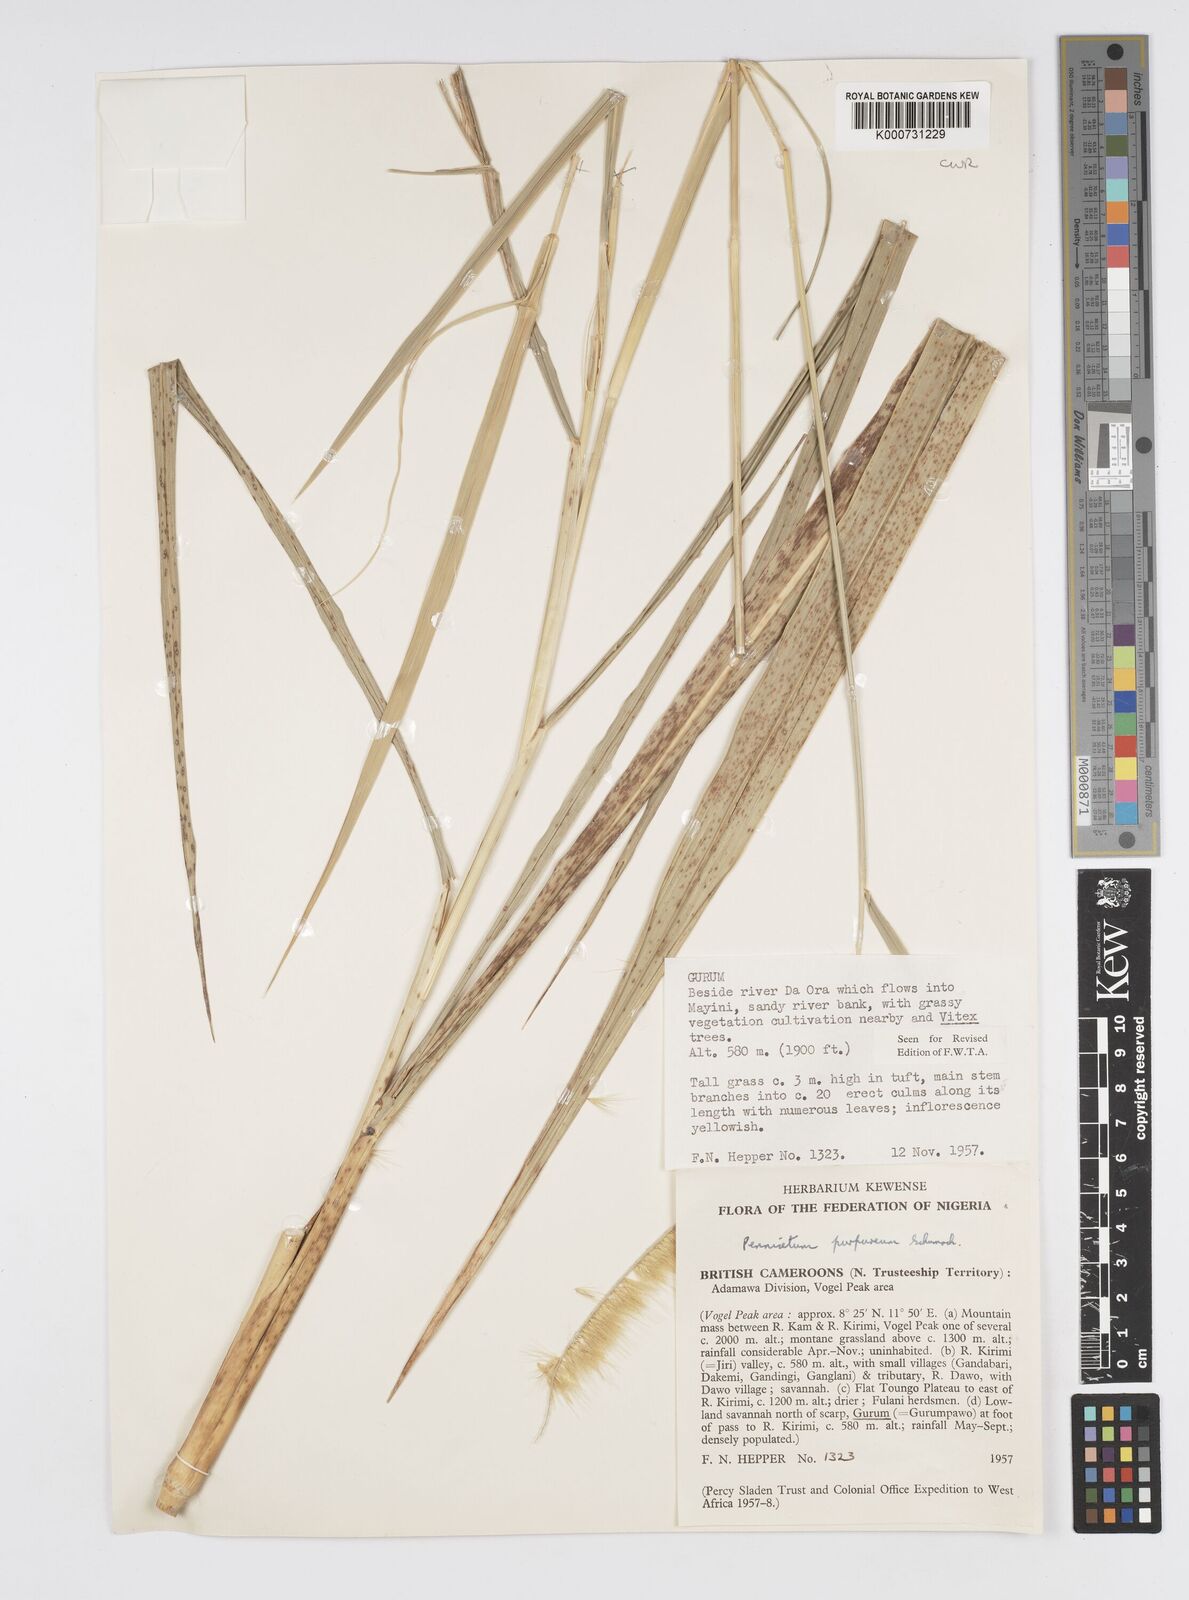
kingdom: Plantae
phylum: Tracheophyta
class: Liliopsida
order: Poales
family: Poaceae
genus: Cenchrus
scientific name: Cenchrus purpureus
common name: Elephant grass
